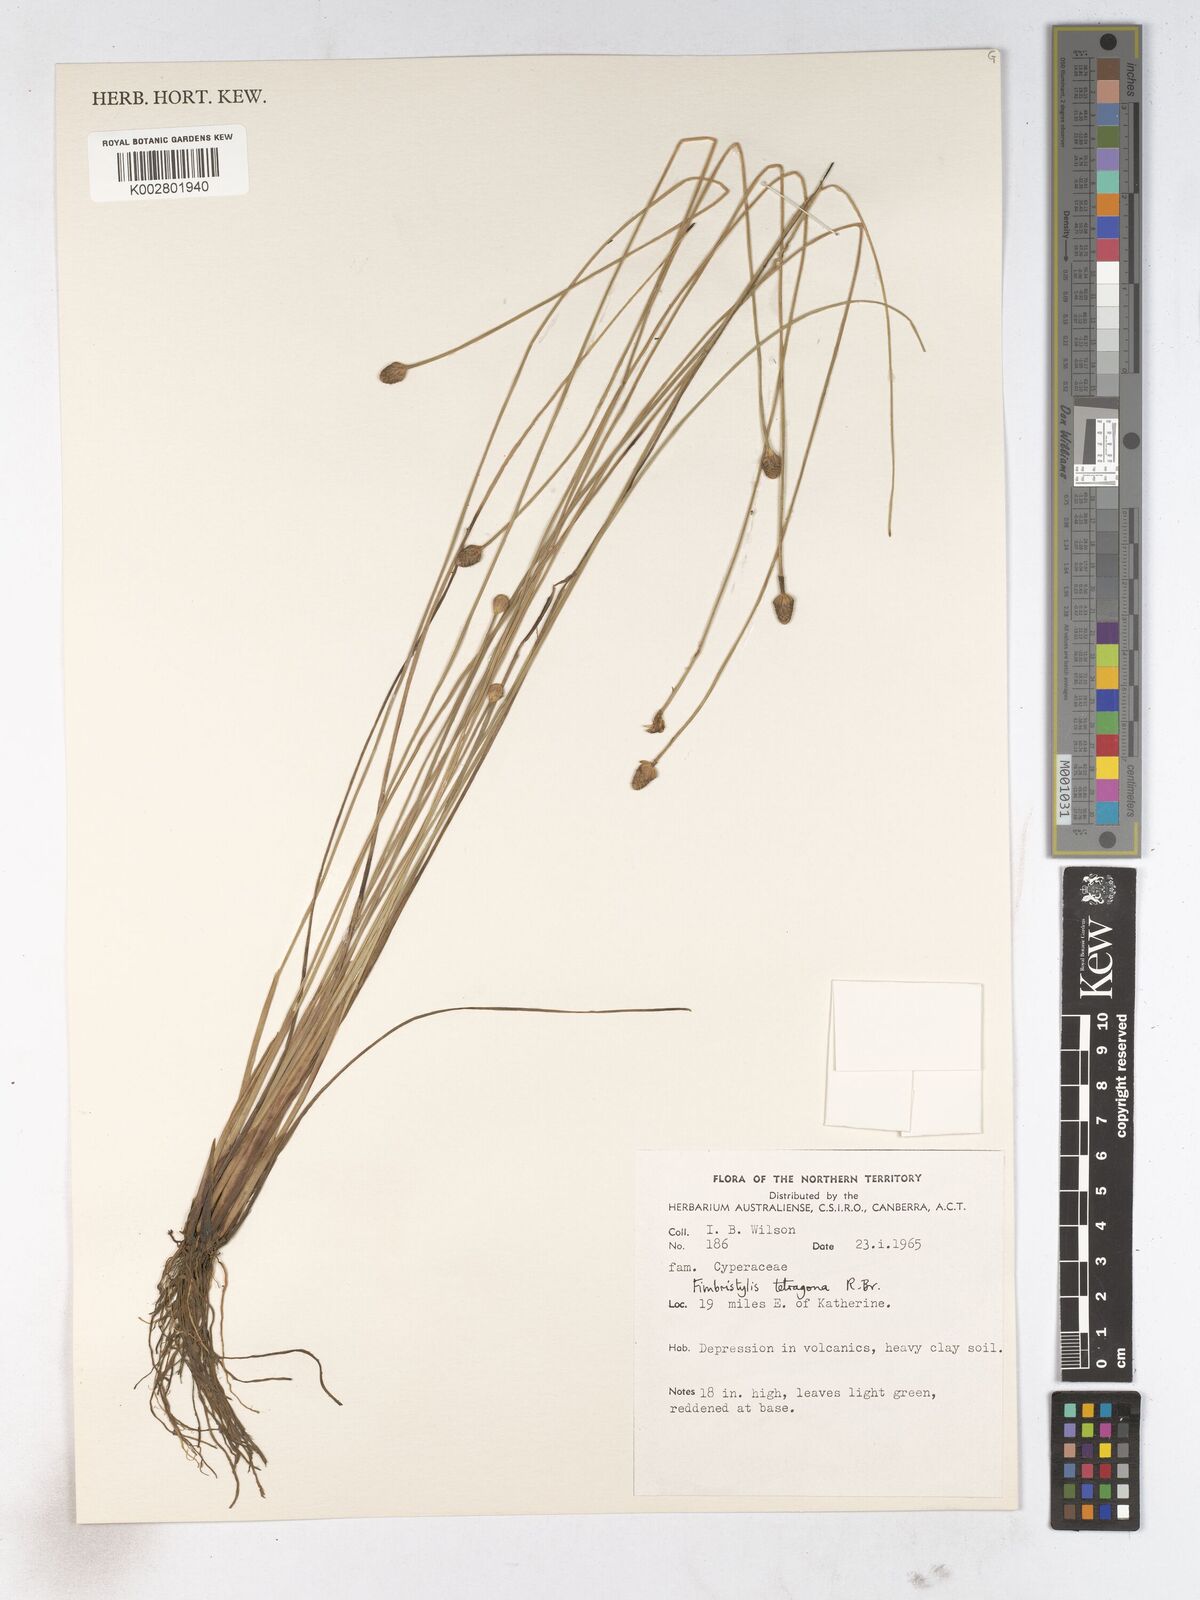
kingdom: Plantae
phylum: Tracheophyta
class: Liliopsida
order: Poales
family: Cyperaceae
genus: Fimbristylis
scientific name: Fimbristylis tetragona
